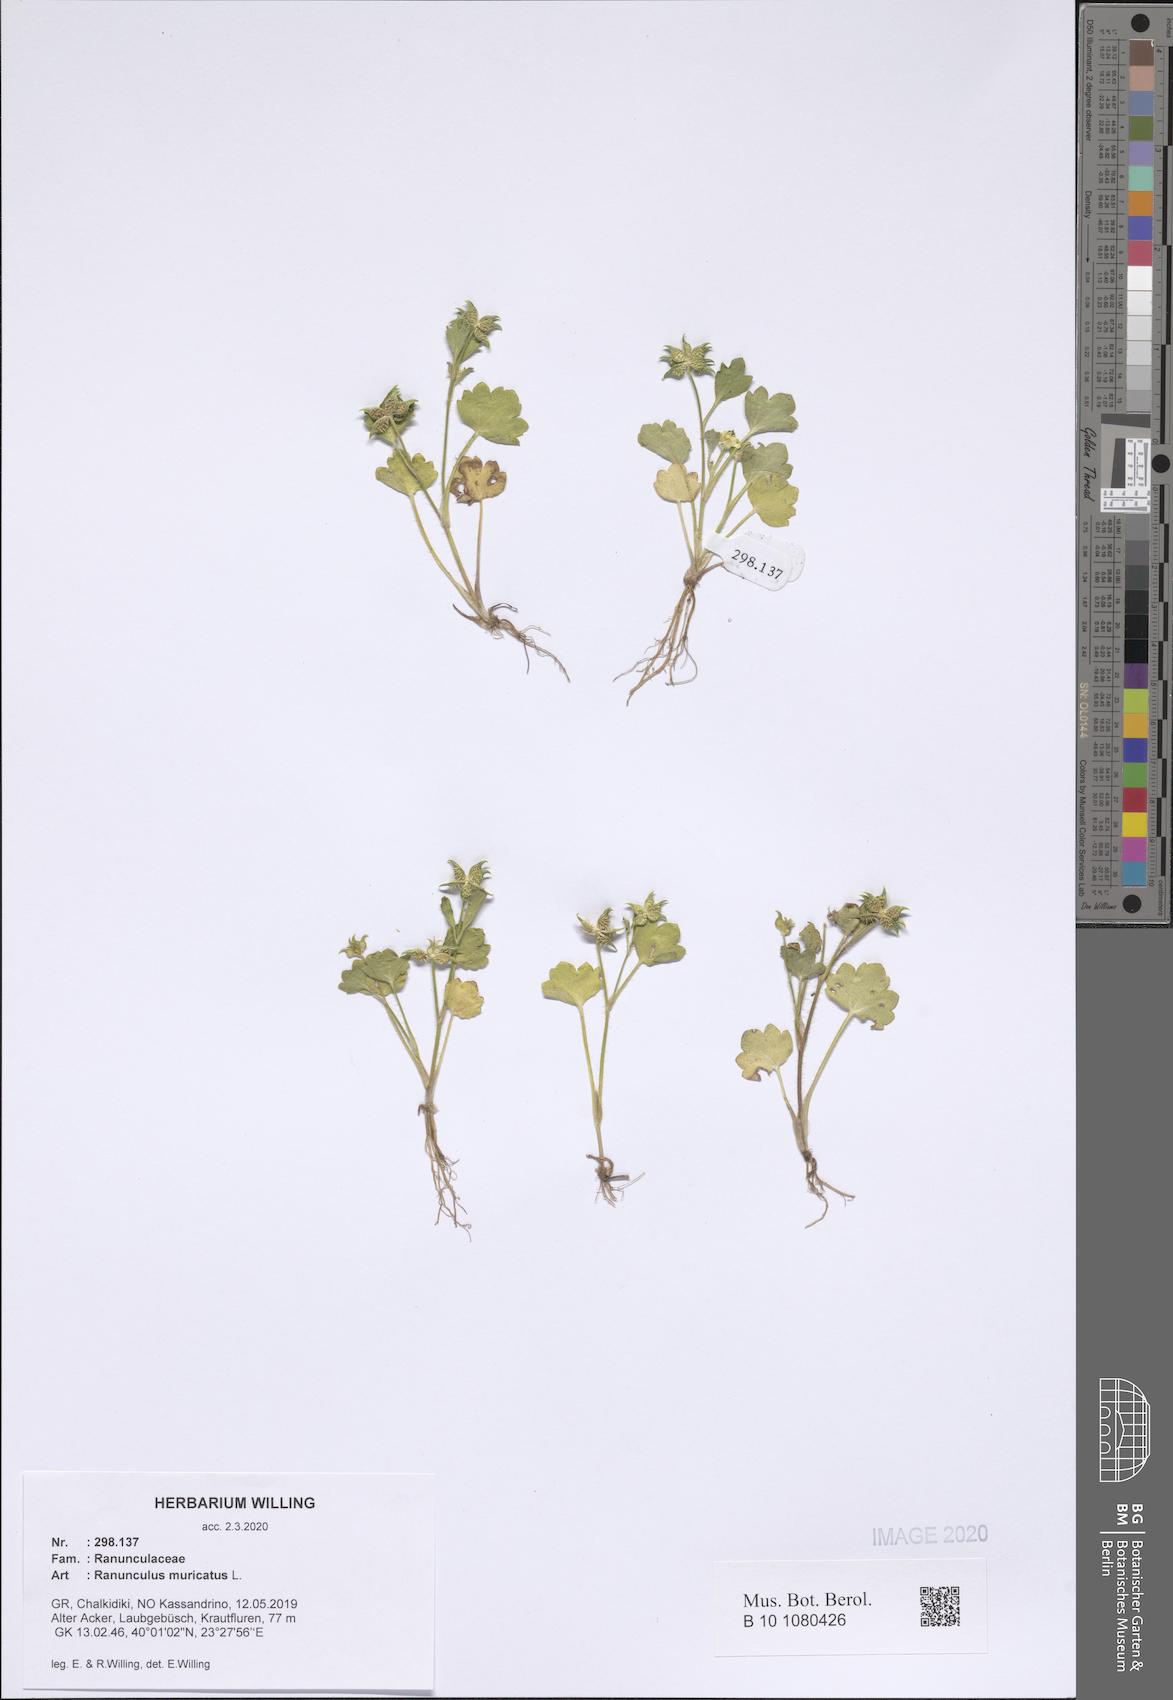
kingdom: Plantae
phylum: Tracheophyta
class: Magnoliopsida
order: Ranunculales
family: Ranunculaceae
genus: Ranunculus
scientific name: Ranunculus muricatus
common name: Rough-fruited buttercup
